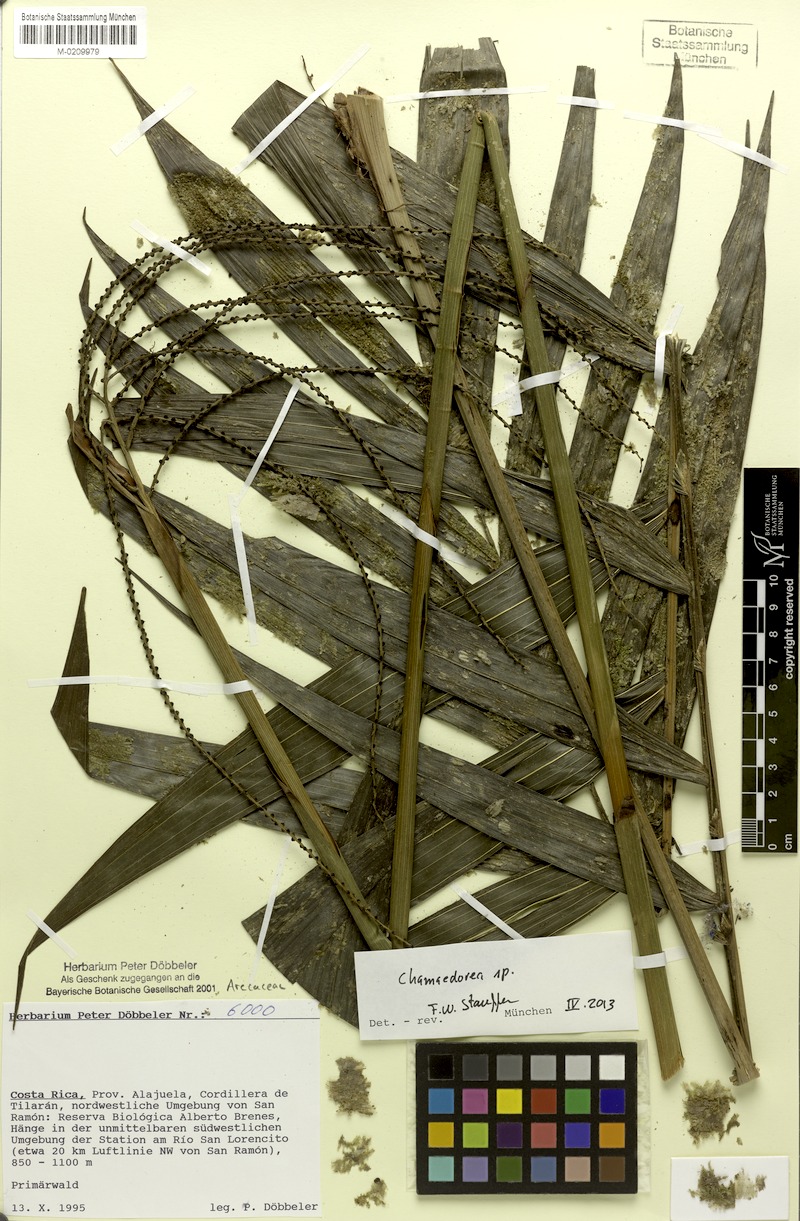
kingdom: Plantae
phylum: Tracheophyta
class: Liliopsida
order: Arecales
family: Arecaceae
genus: Chamaedorea
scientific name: Chamaedorea
